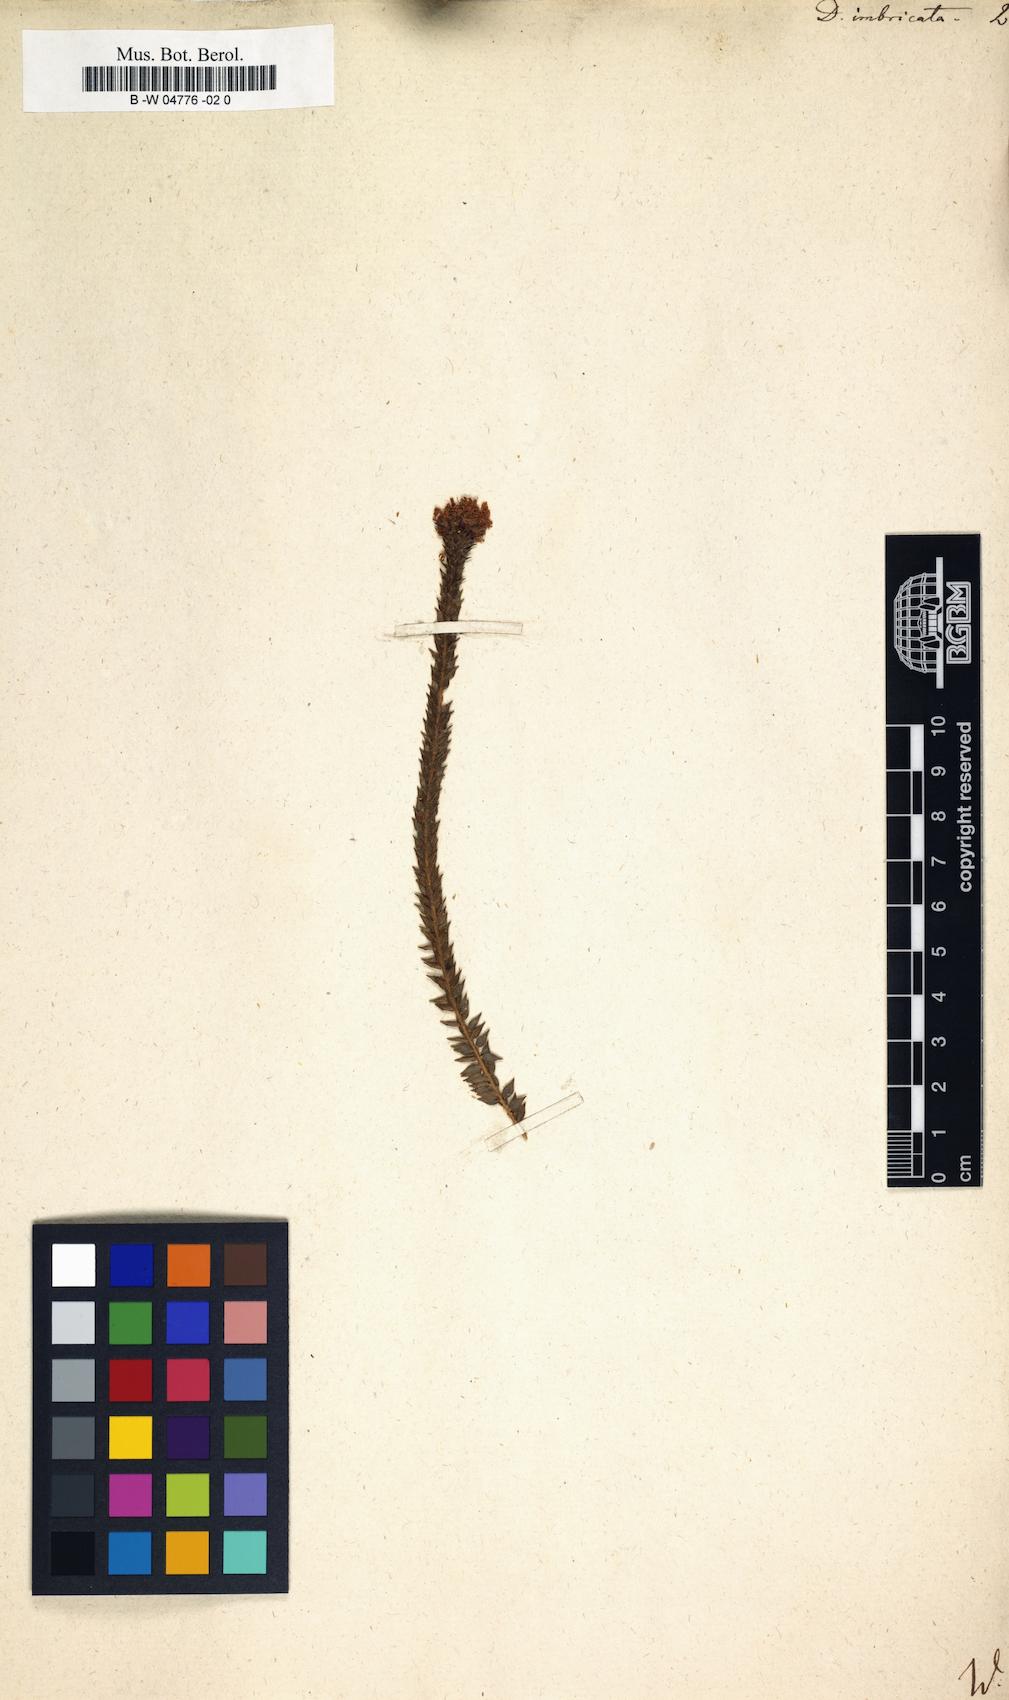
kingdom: Plantae
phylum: Tracheophyta
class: Magnoliopsida
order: Sapindales
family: Rutaceae
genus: Agathosma
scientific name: Agathosma imbricata
